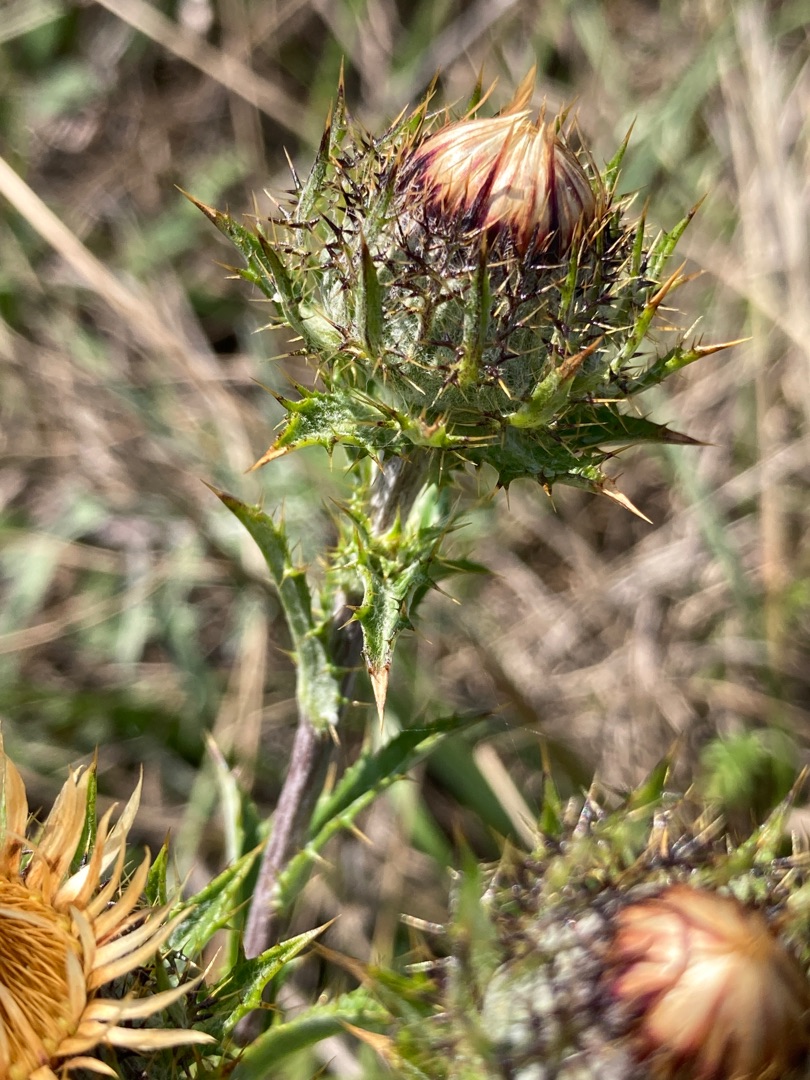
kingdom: Plantae
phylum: Tracheophyta
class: Magnoliopsida
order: Asterales
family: Asteraceae
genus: Carlina
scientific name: Carlina vulgaris
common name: Bakketidsel
